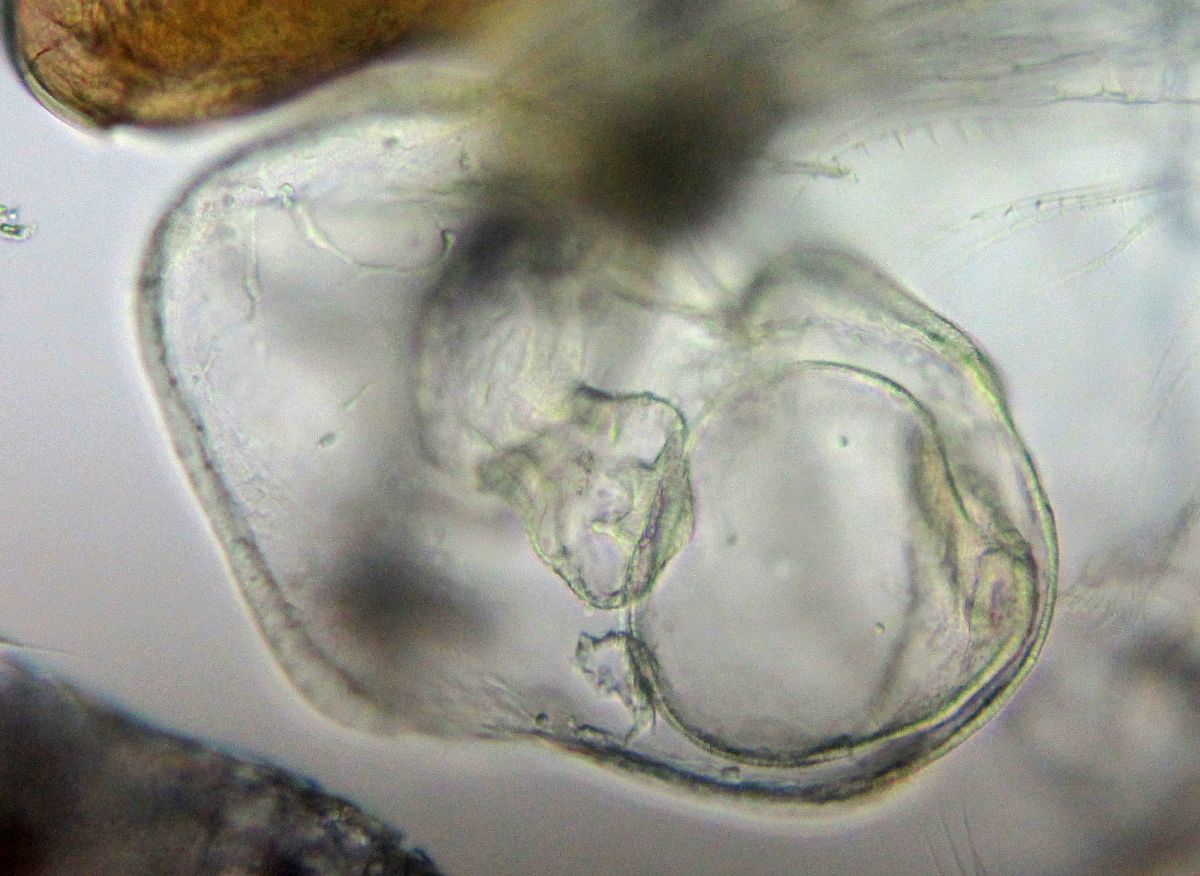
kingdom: Animalia
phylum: Echinodermata
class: Asteroidea
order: Forcipulatida
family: Asteriidae
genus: Asterias
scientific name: Asterias rubens
